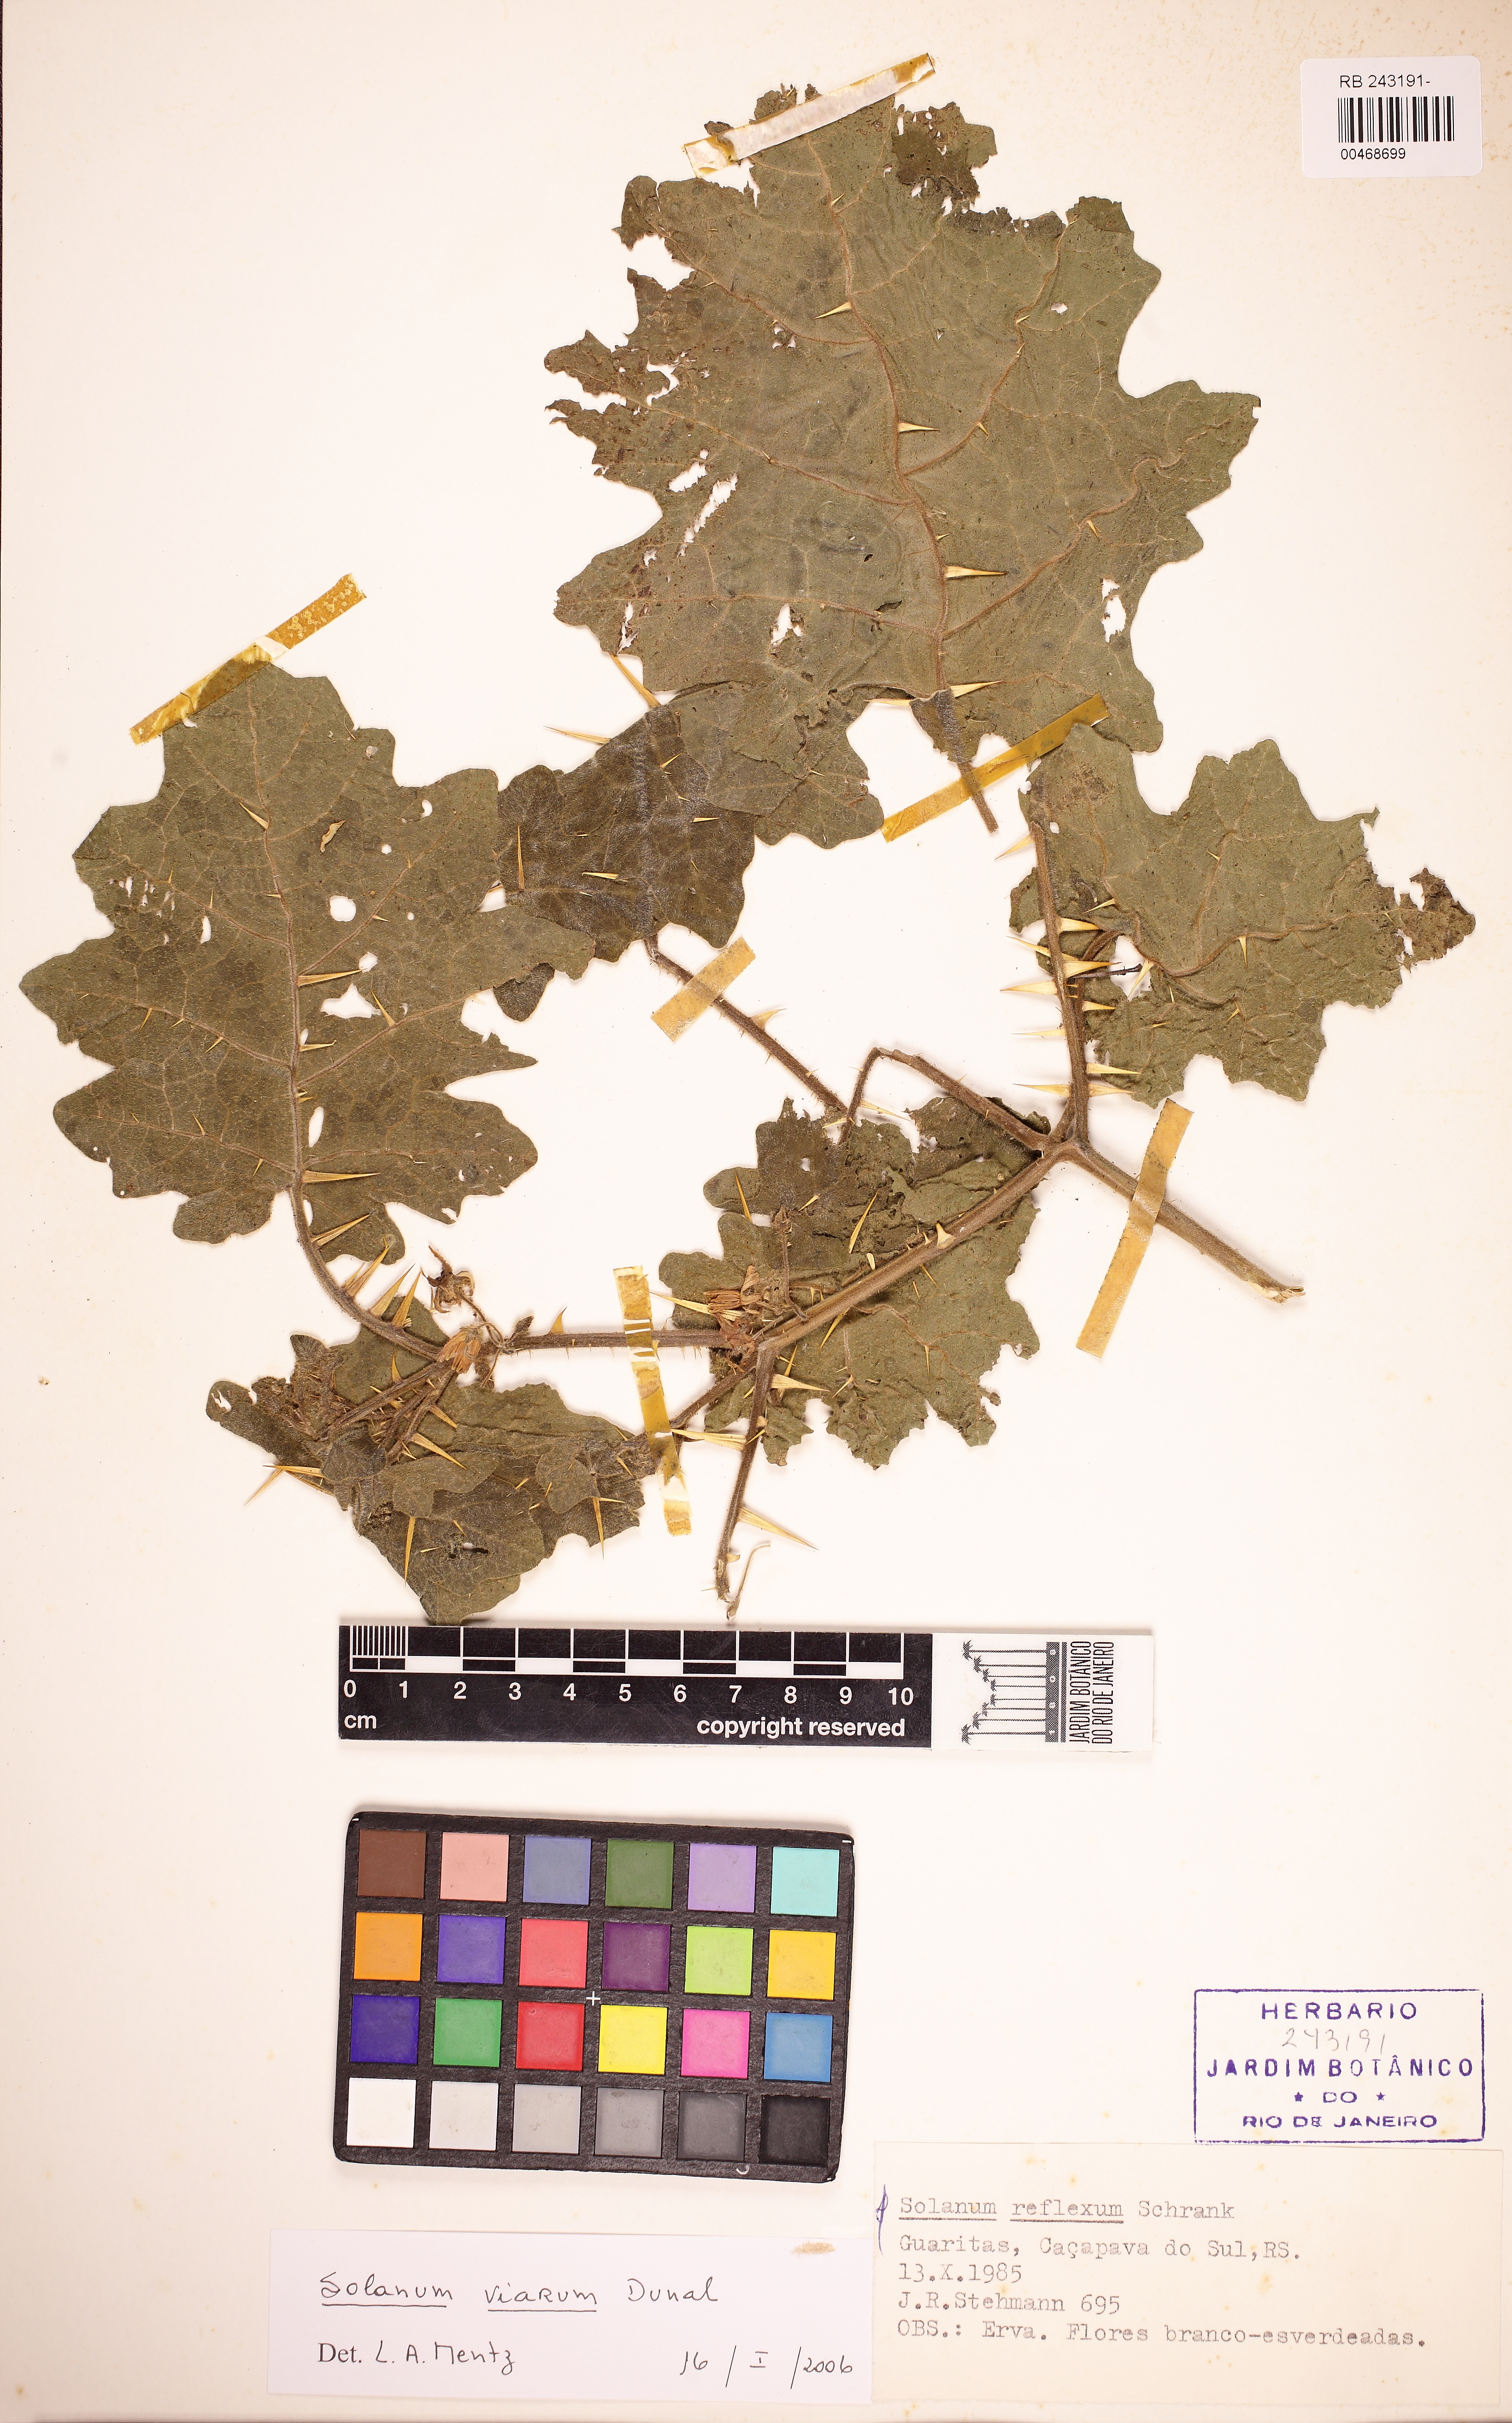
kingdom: Plantae
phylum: Tracheophyta
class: Magnoliopsida
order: Solanales
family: Solanaceae
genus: Solanum
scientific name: Solanum viarum
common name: Tropical soda apple
